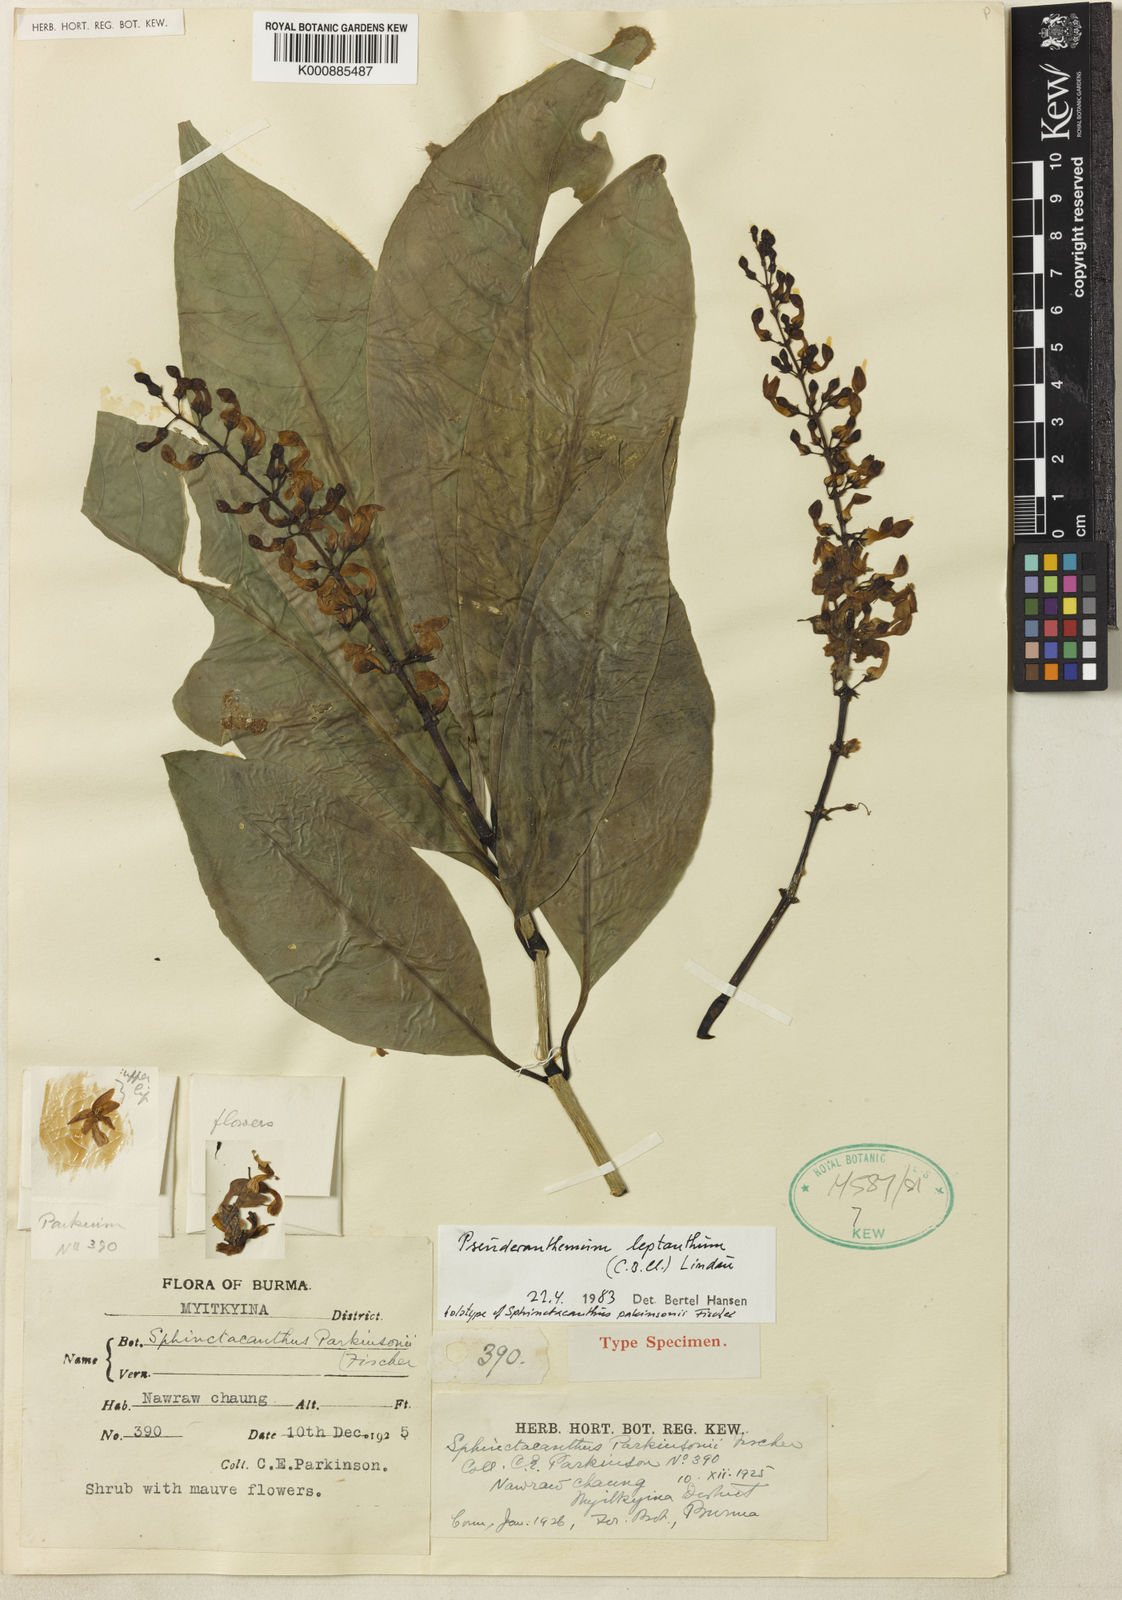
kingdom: Plantae
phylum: Tracheophyta
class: Magnoliopsida
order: Lamiales
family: Acanthaceae
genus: Pseuderanthemum
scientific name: Pseuderanthemum
